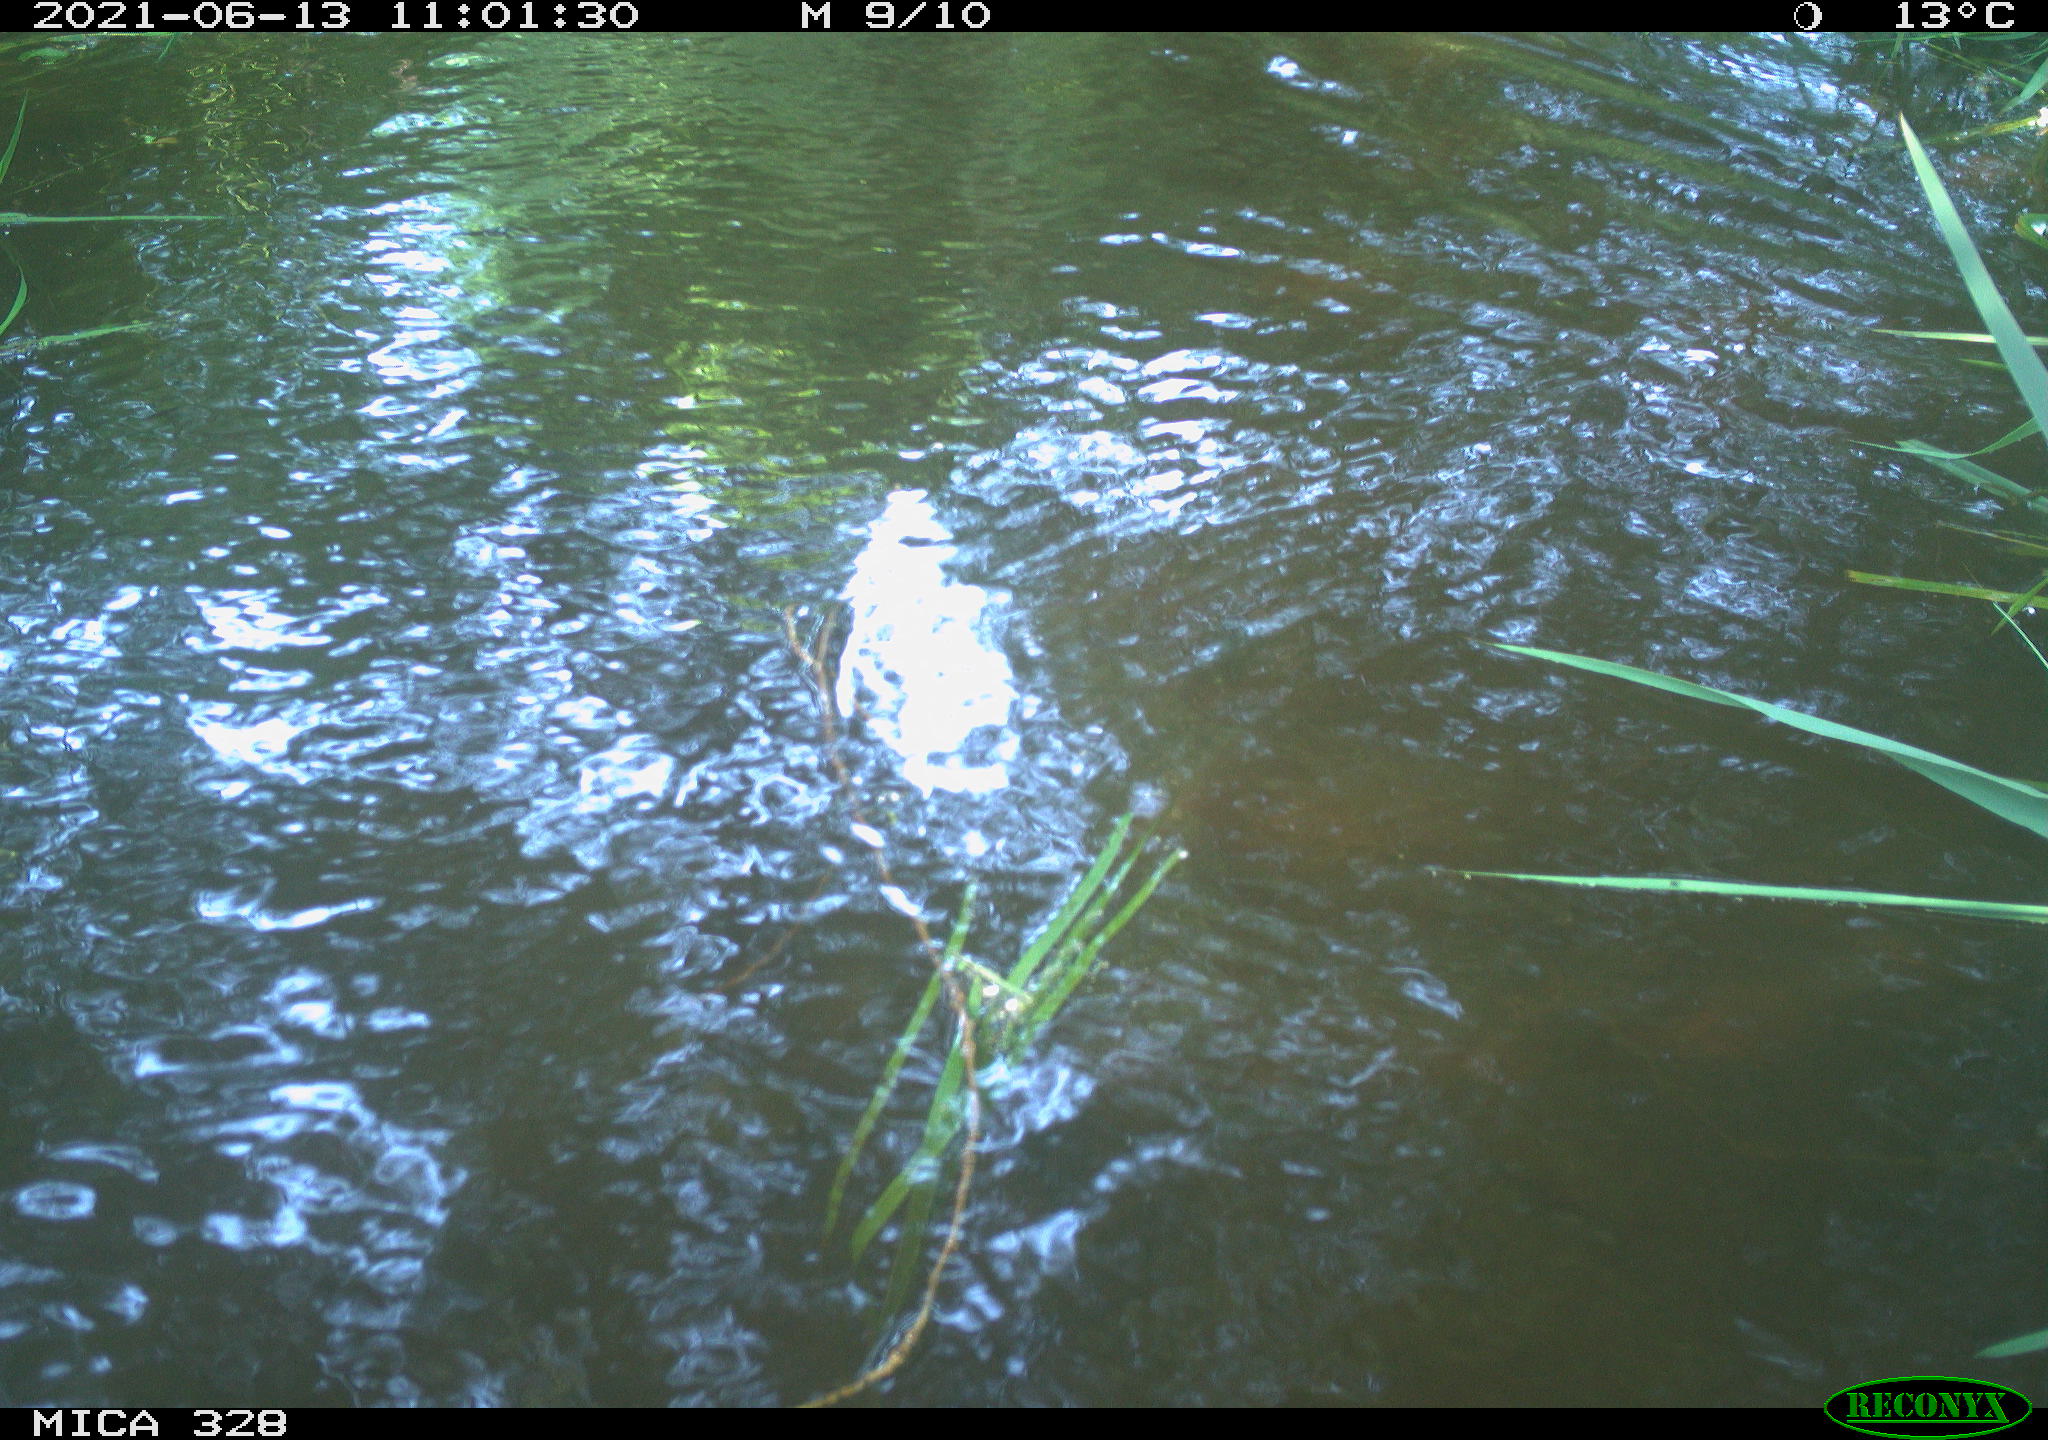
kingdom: Animalia
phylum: Chordata
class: Aves
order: Anseriformes
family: Anatidae
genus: Aix
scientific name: Aix galericulata
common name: Mandarin duck
